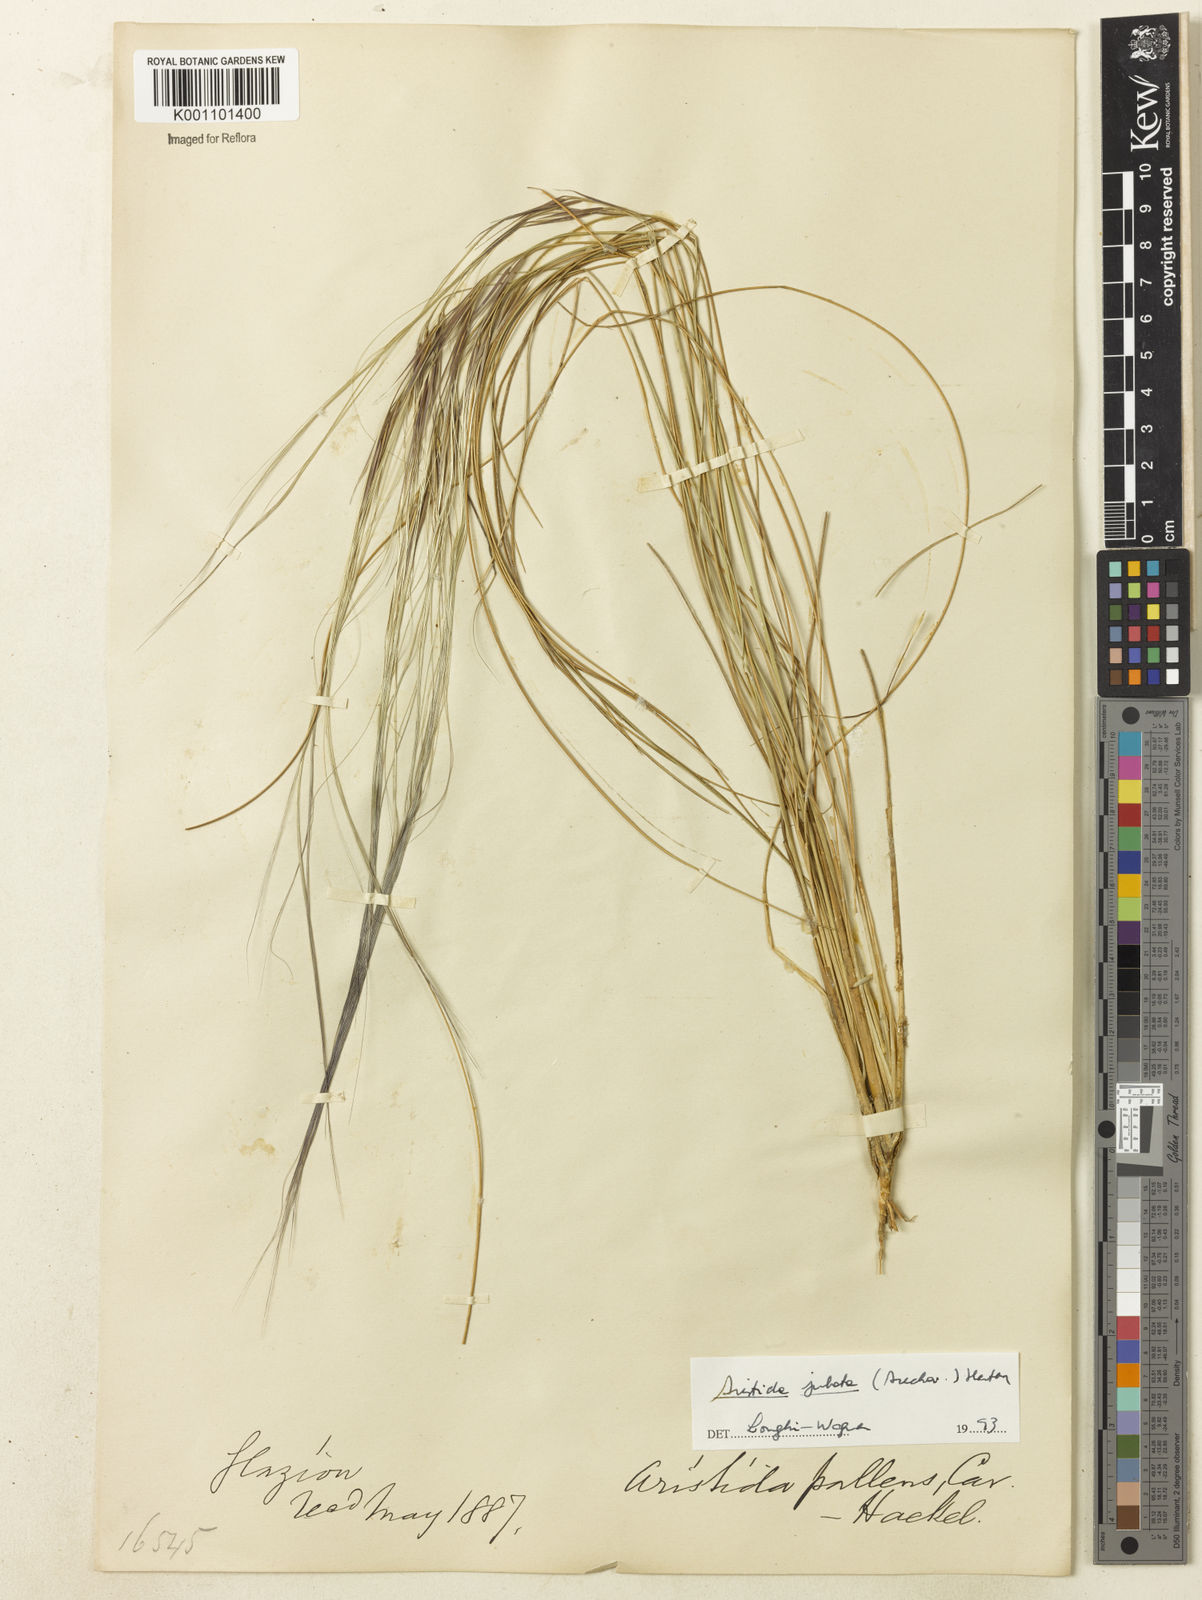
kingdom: Plantae
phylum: Tracheophyta
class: Liliopsida
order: Poales
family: Poaceae
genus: Aristida
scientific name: Aristida jubata
